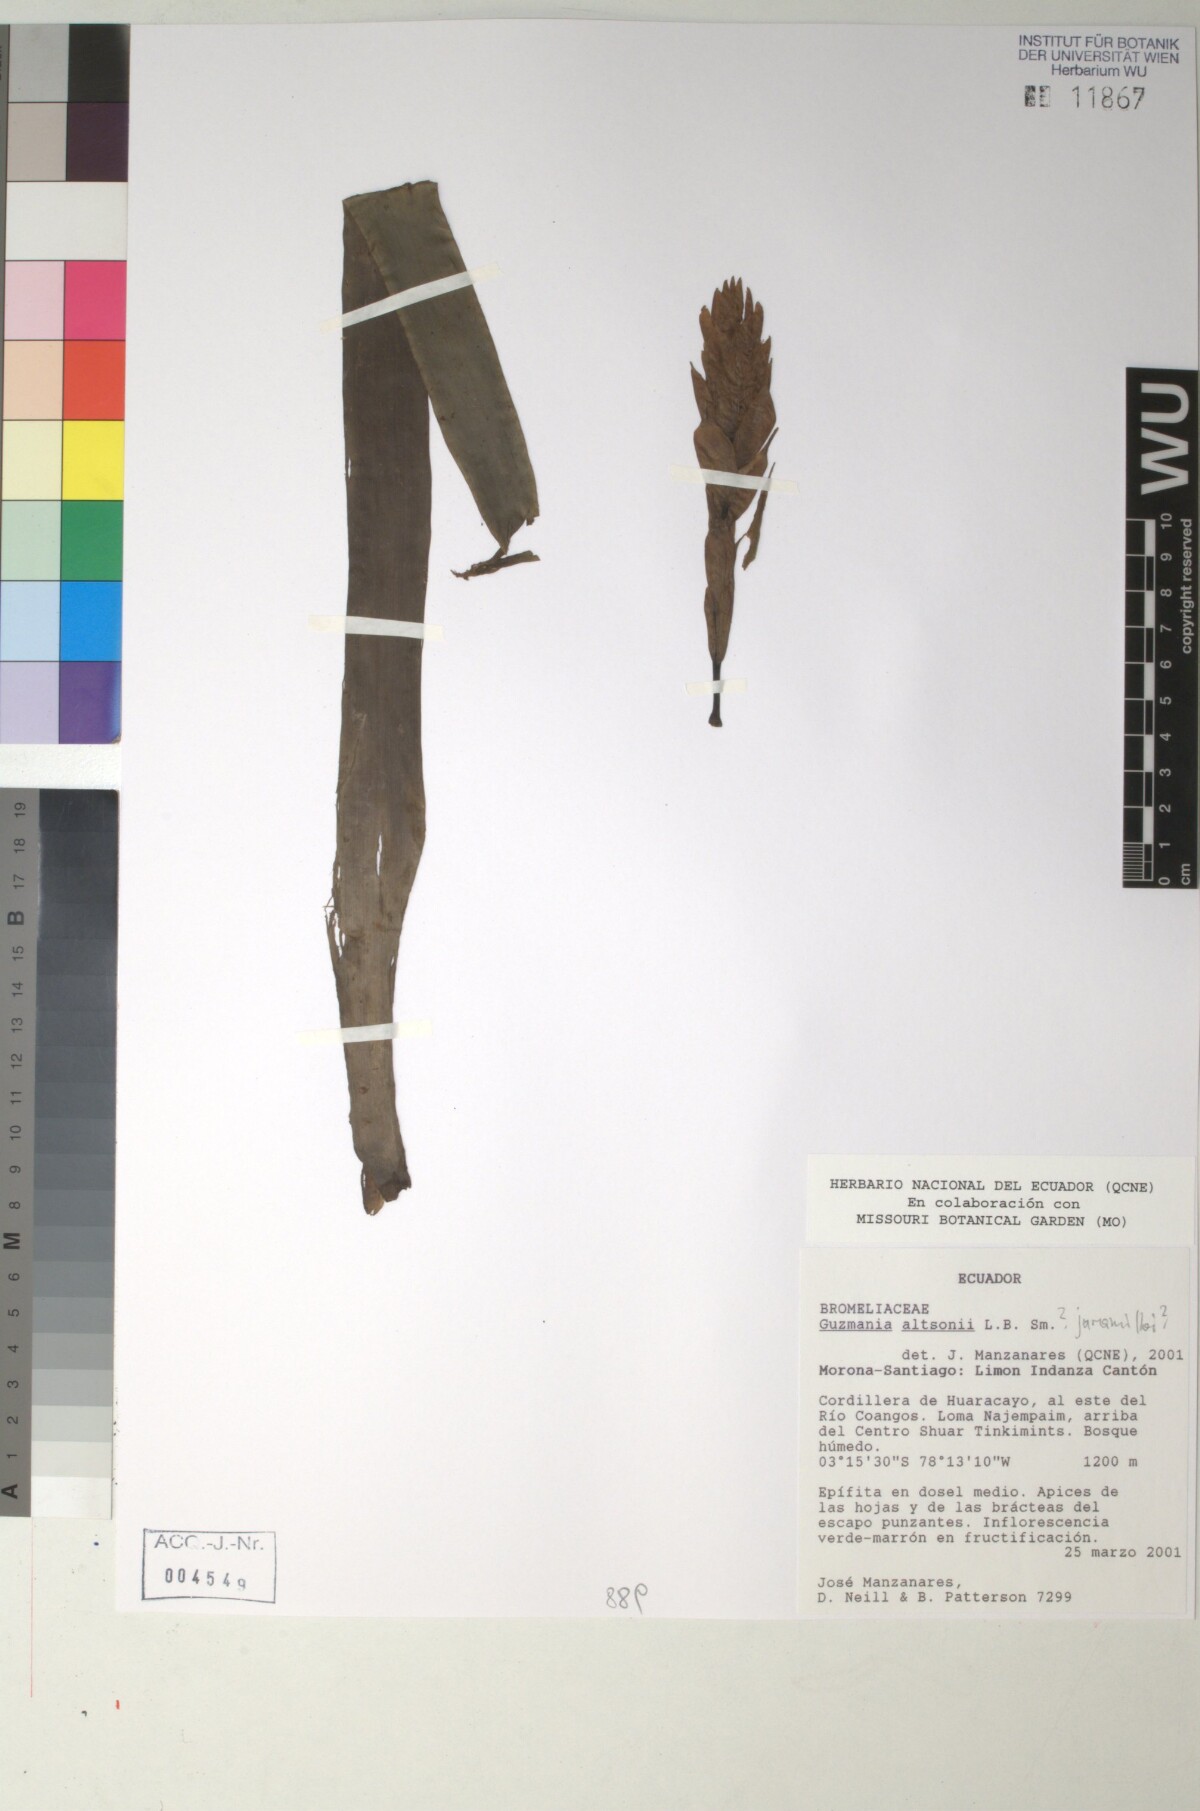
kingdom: Plantae
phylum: Tracheophyta
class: Liliopsida
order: Poales
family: Bromeliaceae
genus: Guzmania
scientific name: Guzmania altsonii
